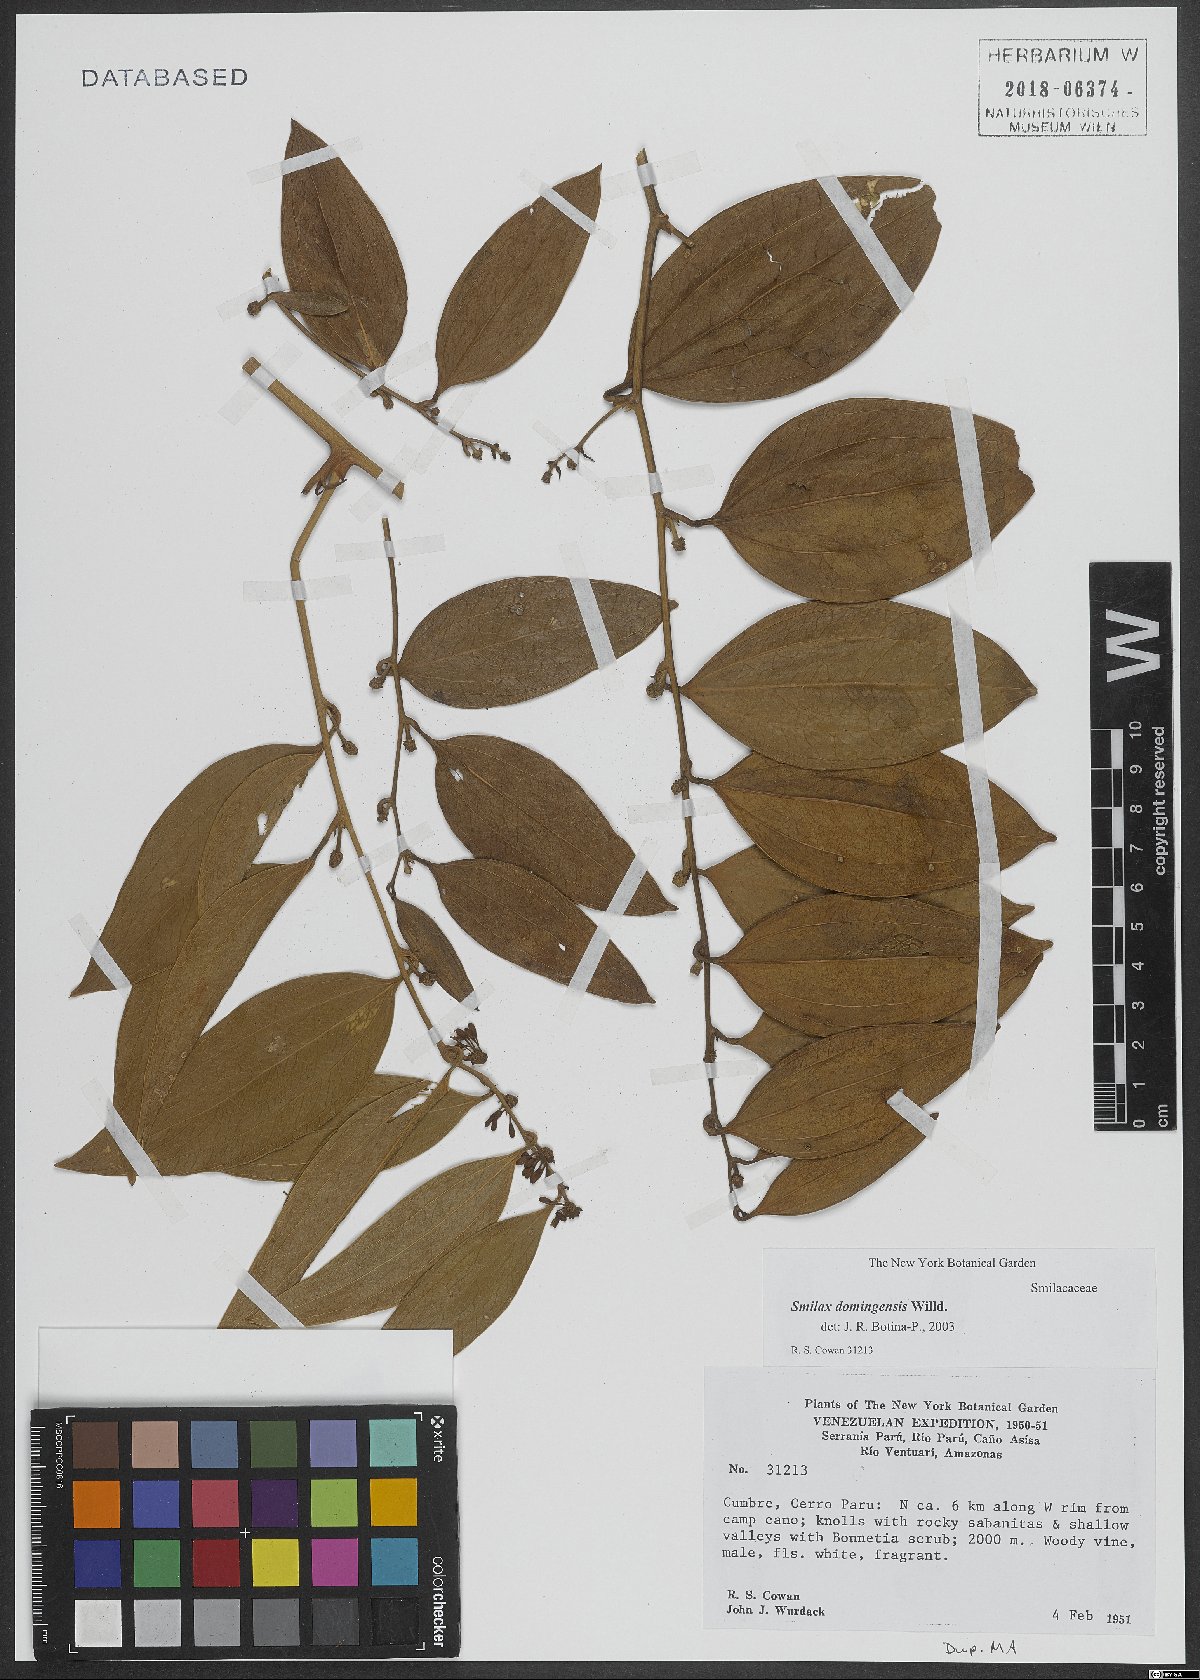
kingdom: Plantae
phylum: Tracheophyta
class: Liliopsida
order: Liliales
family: Smilacaceae
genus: Smilax
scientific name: Smilax domingensis
